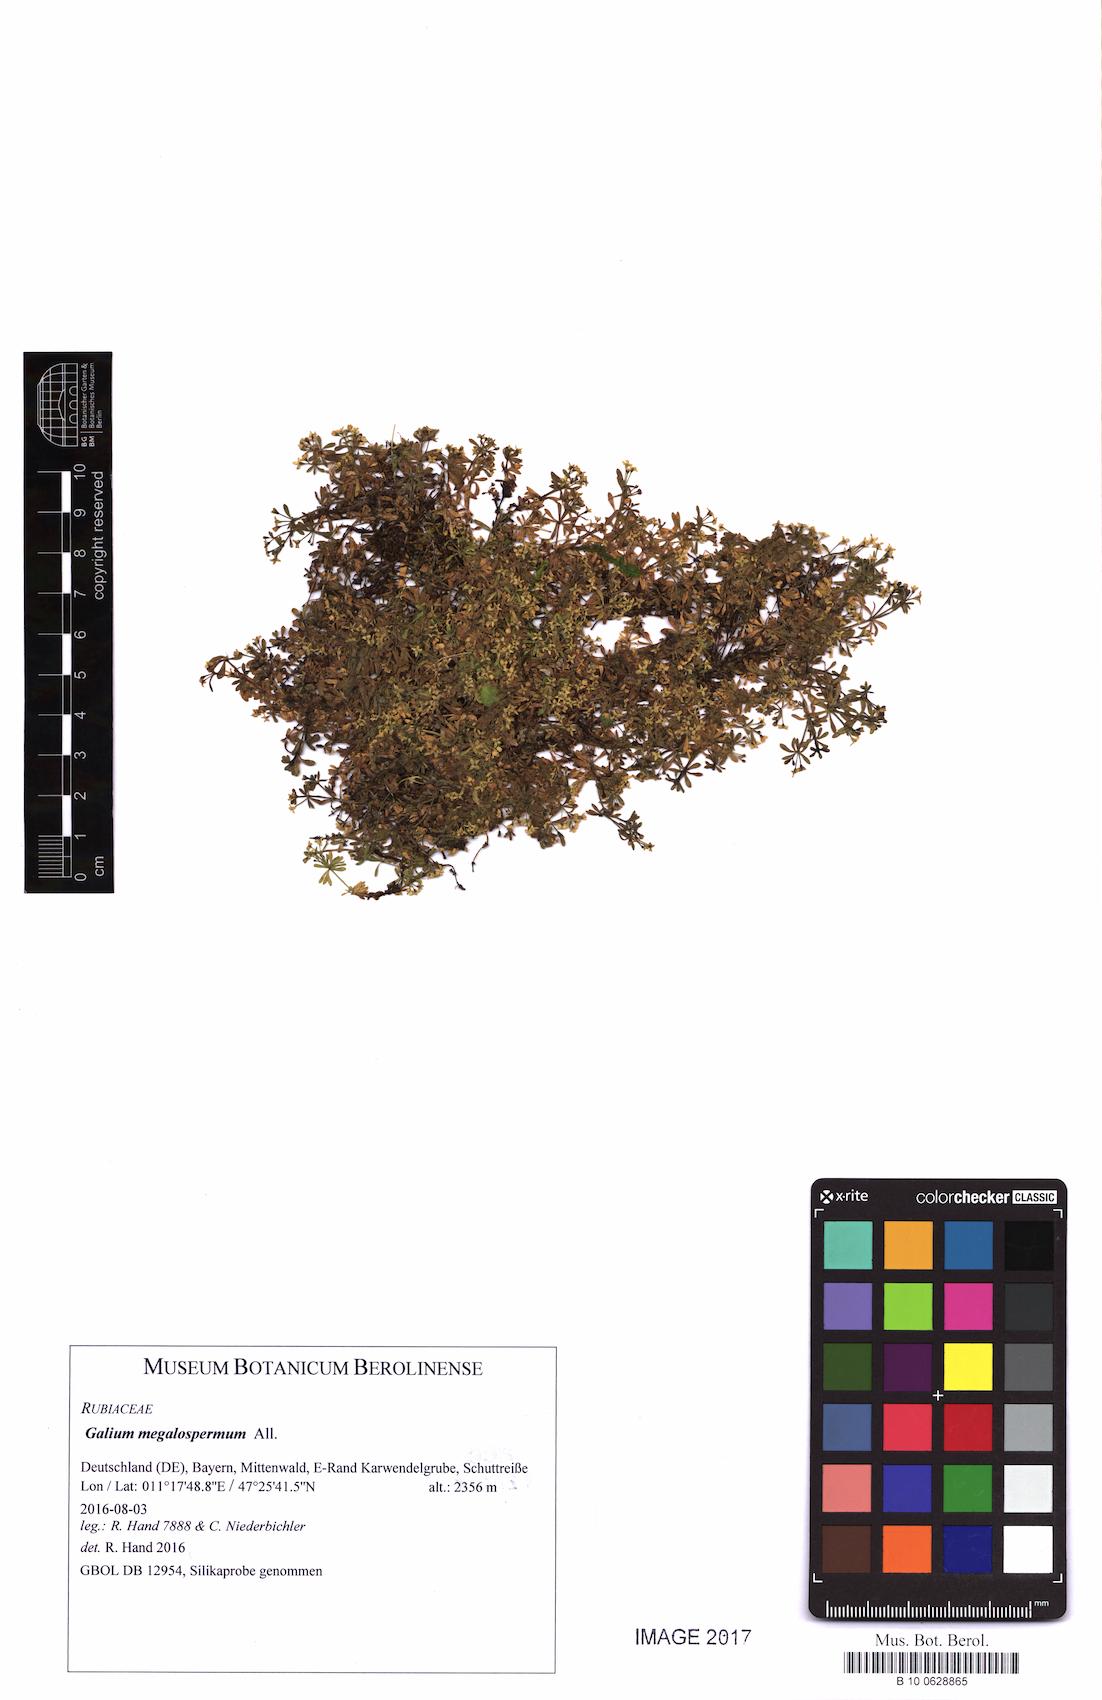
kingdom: Plantae
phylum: Tracheophyta
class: Magnoliopsida
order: Gentianales
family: Rubiaceae
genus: Galium
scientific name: Galium megalospermum
